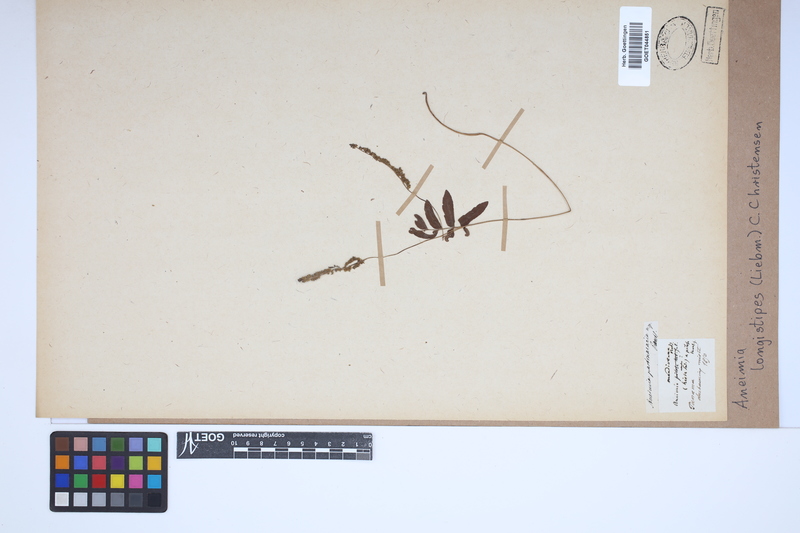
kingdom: Plantae
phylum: Tracheophyta
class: Polypodiopsida
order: Schizaeales
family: Anemiaceae
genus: Anemia
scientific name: Anemia hispida
